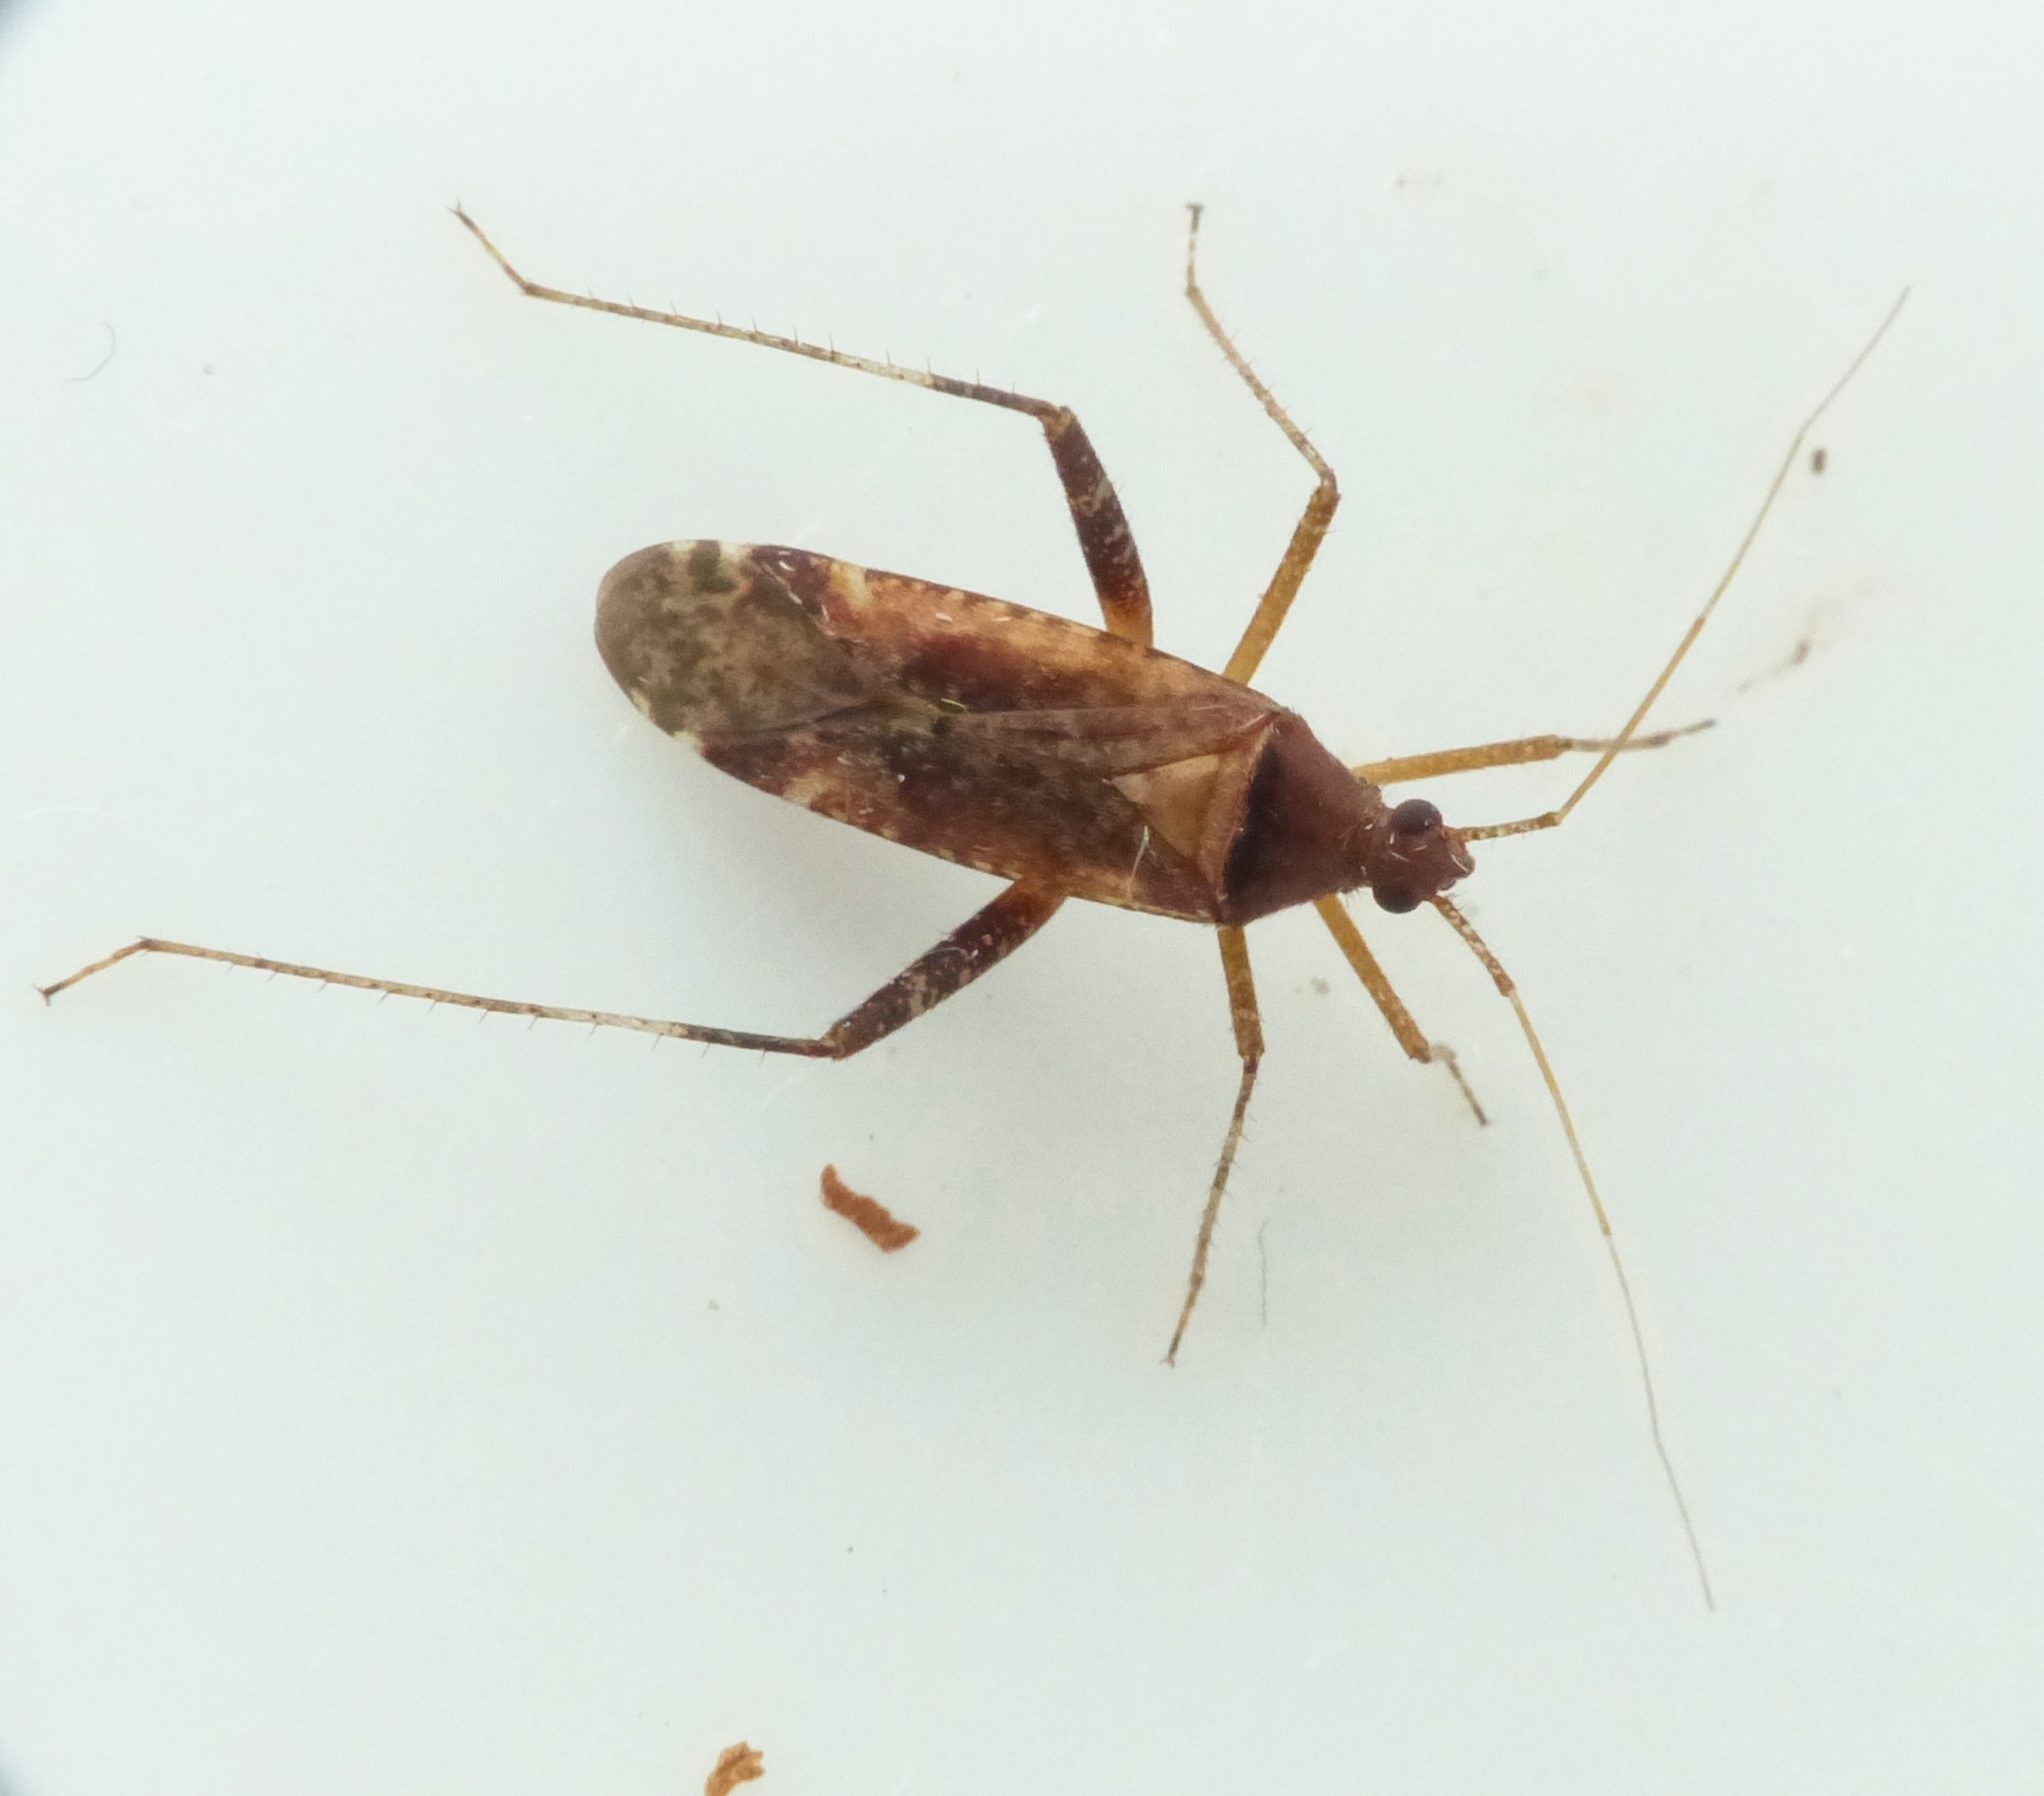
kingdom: Animalia
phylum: Arthropoda
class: Insecta
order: Hemiptera
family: Miridae
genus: Phytocoris
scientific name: Phytocoris ulmi
